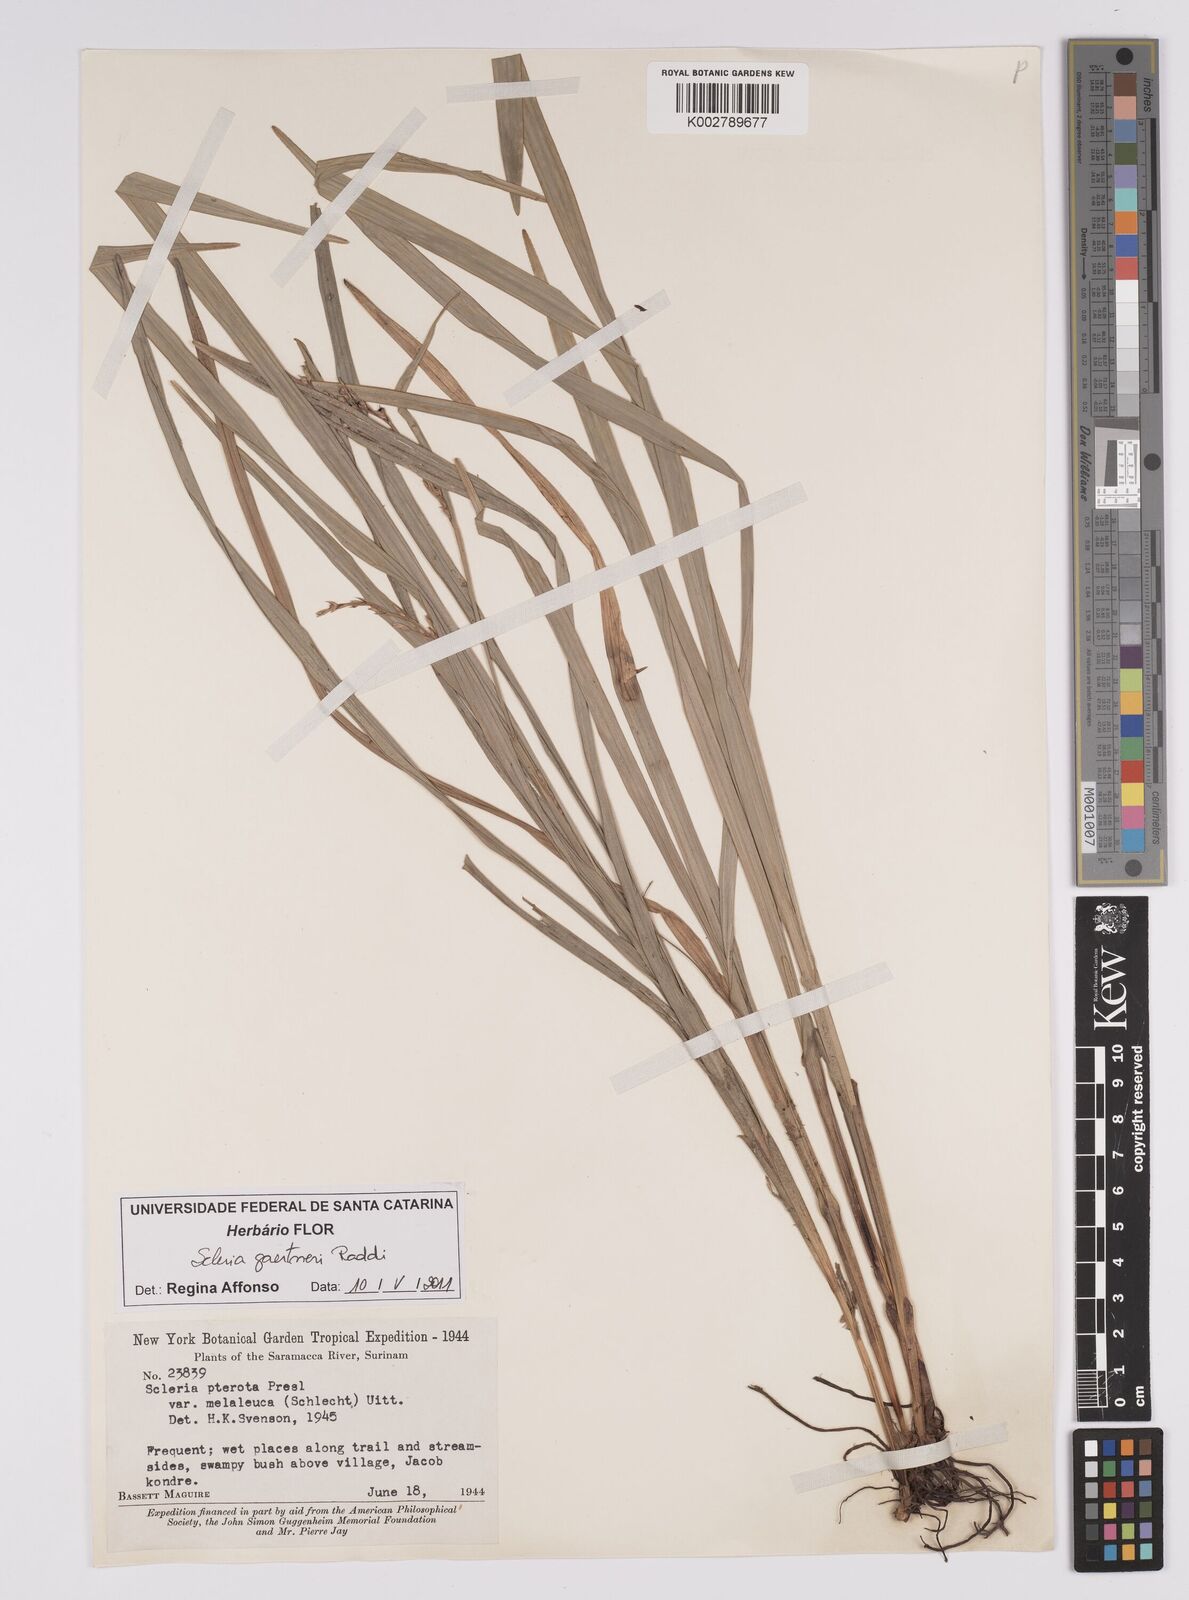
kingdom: Plantae
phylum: Tracheophyta
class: Liliopsida
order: Poales
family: Cyperaceae
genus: Scleria
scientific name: Scleria gaertneri
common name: Cortadera blanca
